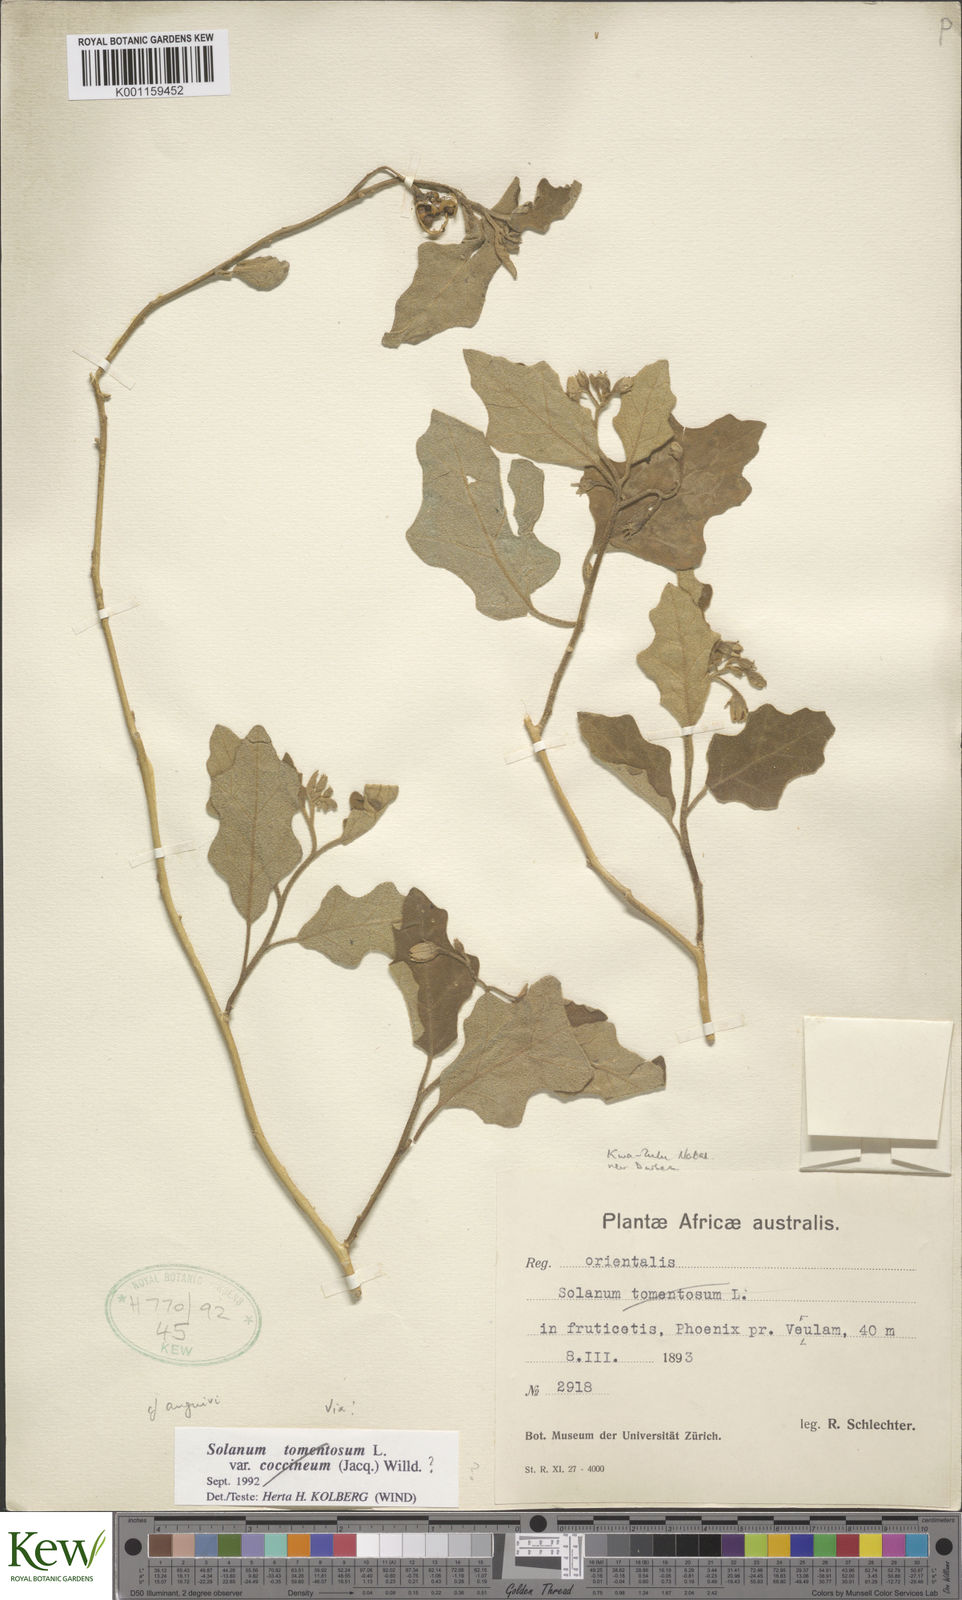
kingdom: Plantae
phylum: Tracheophyta
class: Magnoliopsida
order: Solanales
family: Solanaceae
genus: Solanum
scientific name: Solanum rubetorum
